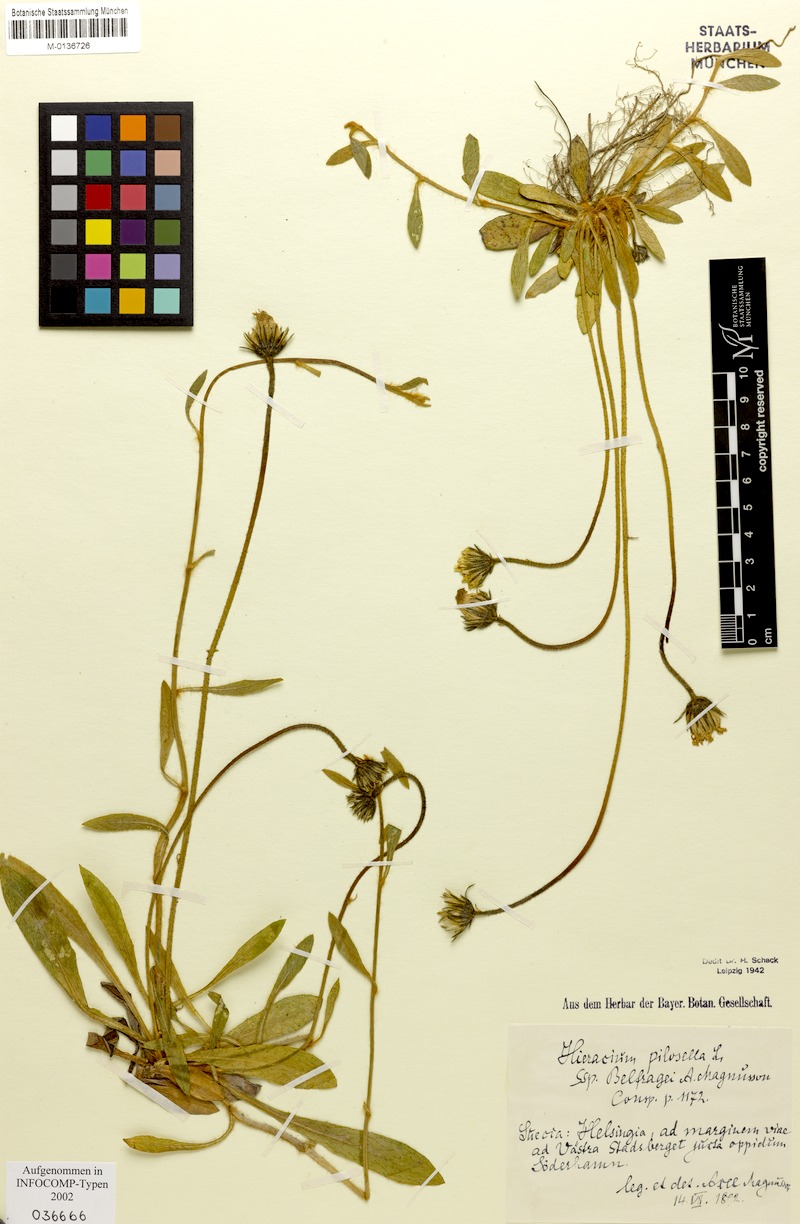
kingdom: Plantae
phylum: Tracheophyta
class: Magnoliopsida
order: Asterales
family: Asteraceae
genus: Pilosella
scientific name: Pilosella officinarum
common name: Mouse-ear hawkweed
